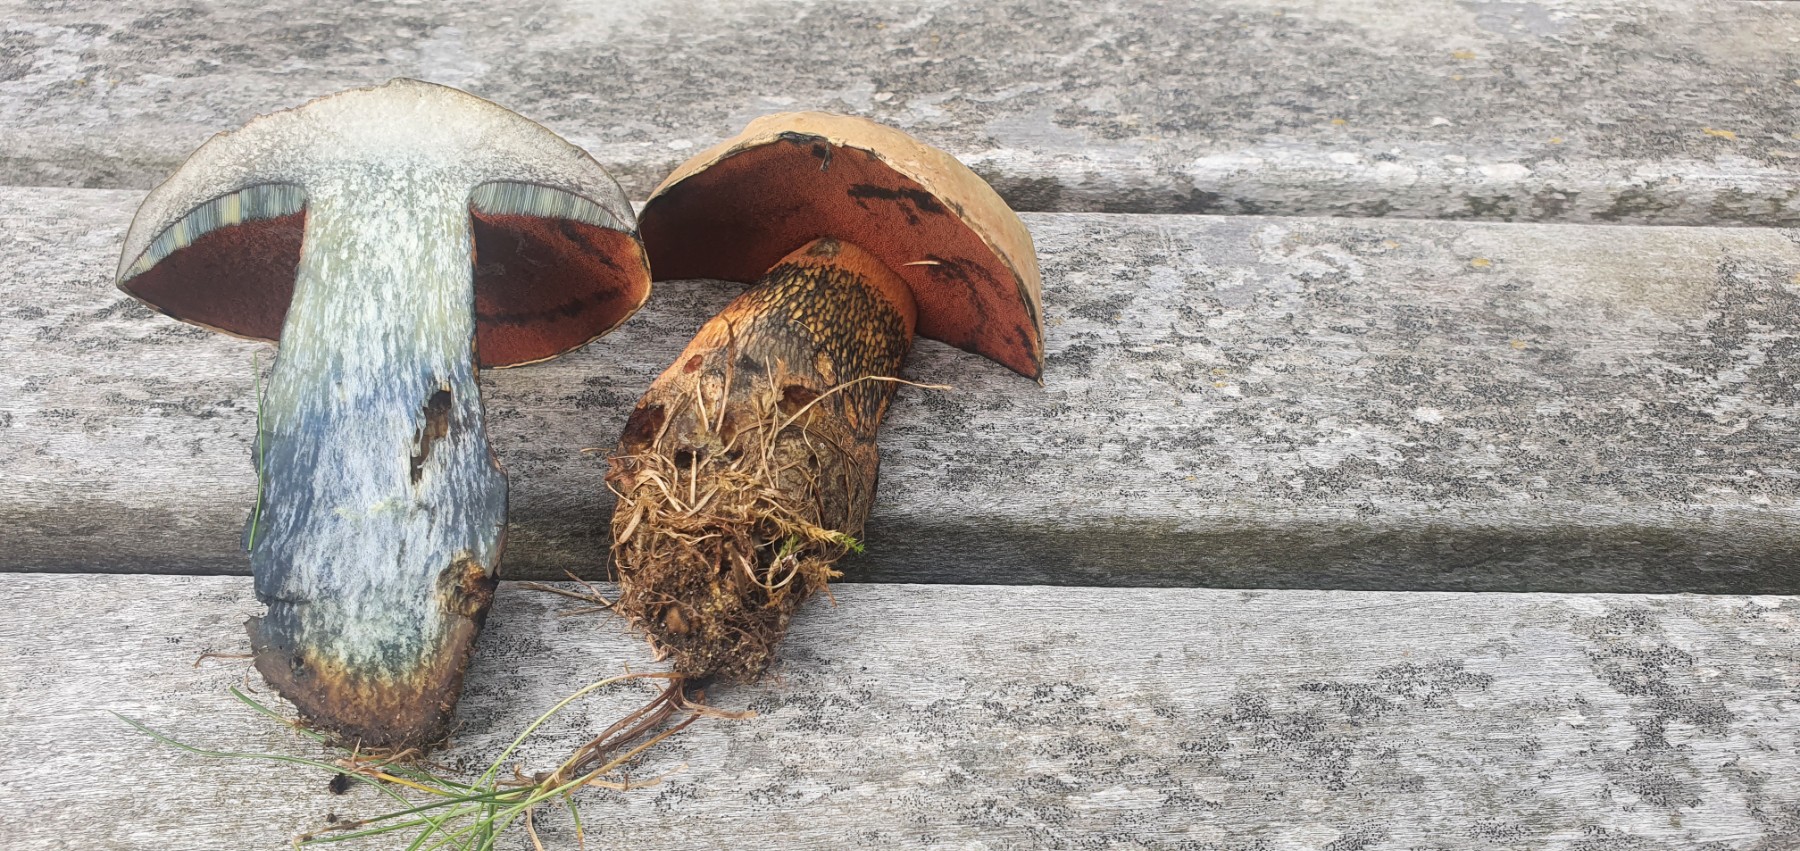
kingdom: Fungi
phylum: Basidiomycota
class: Agaricomycetes
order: Boletales
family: Boletaceae
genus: Suillellus
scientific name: Suillellus luridus
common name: netstokket indigorørhat
